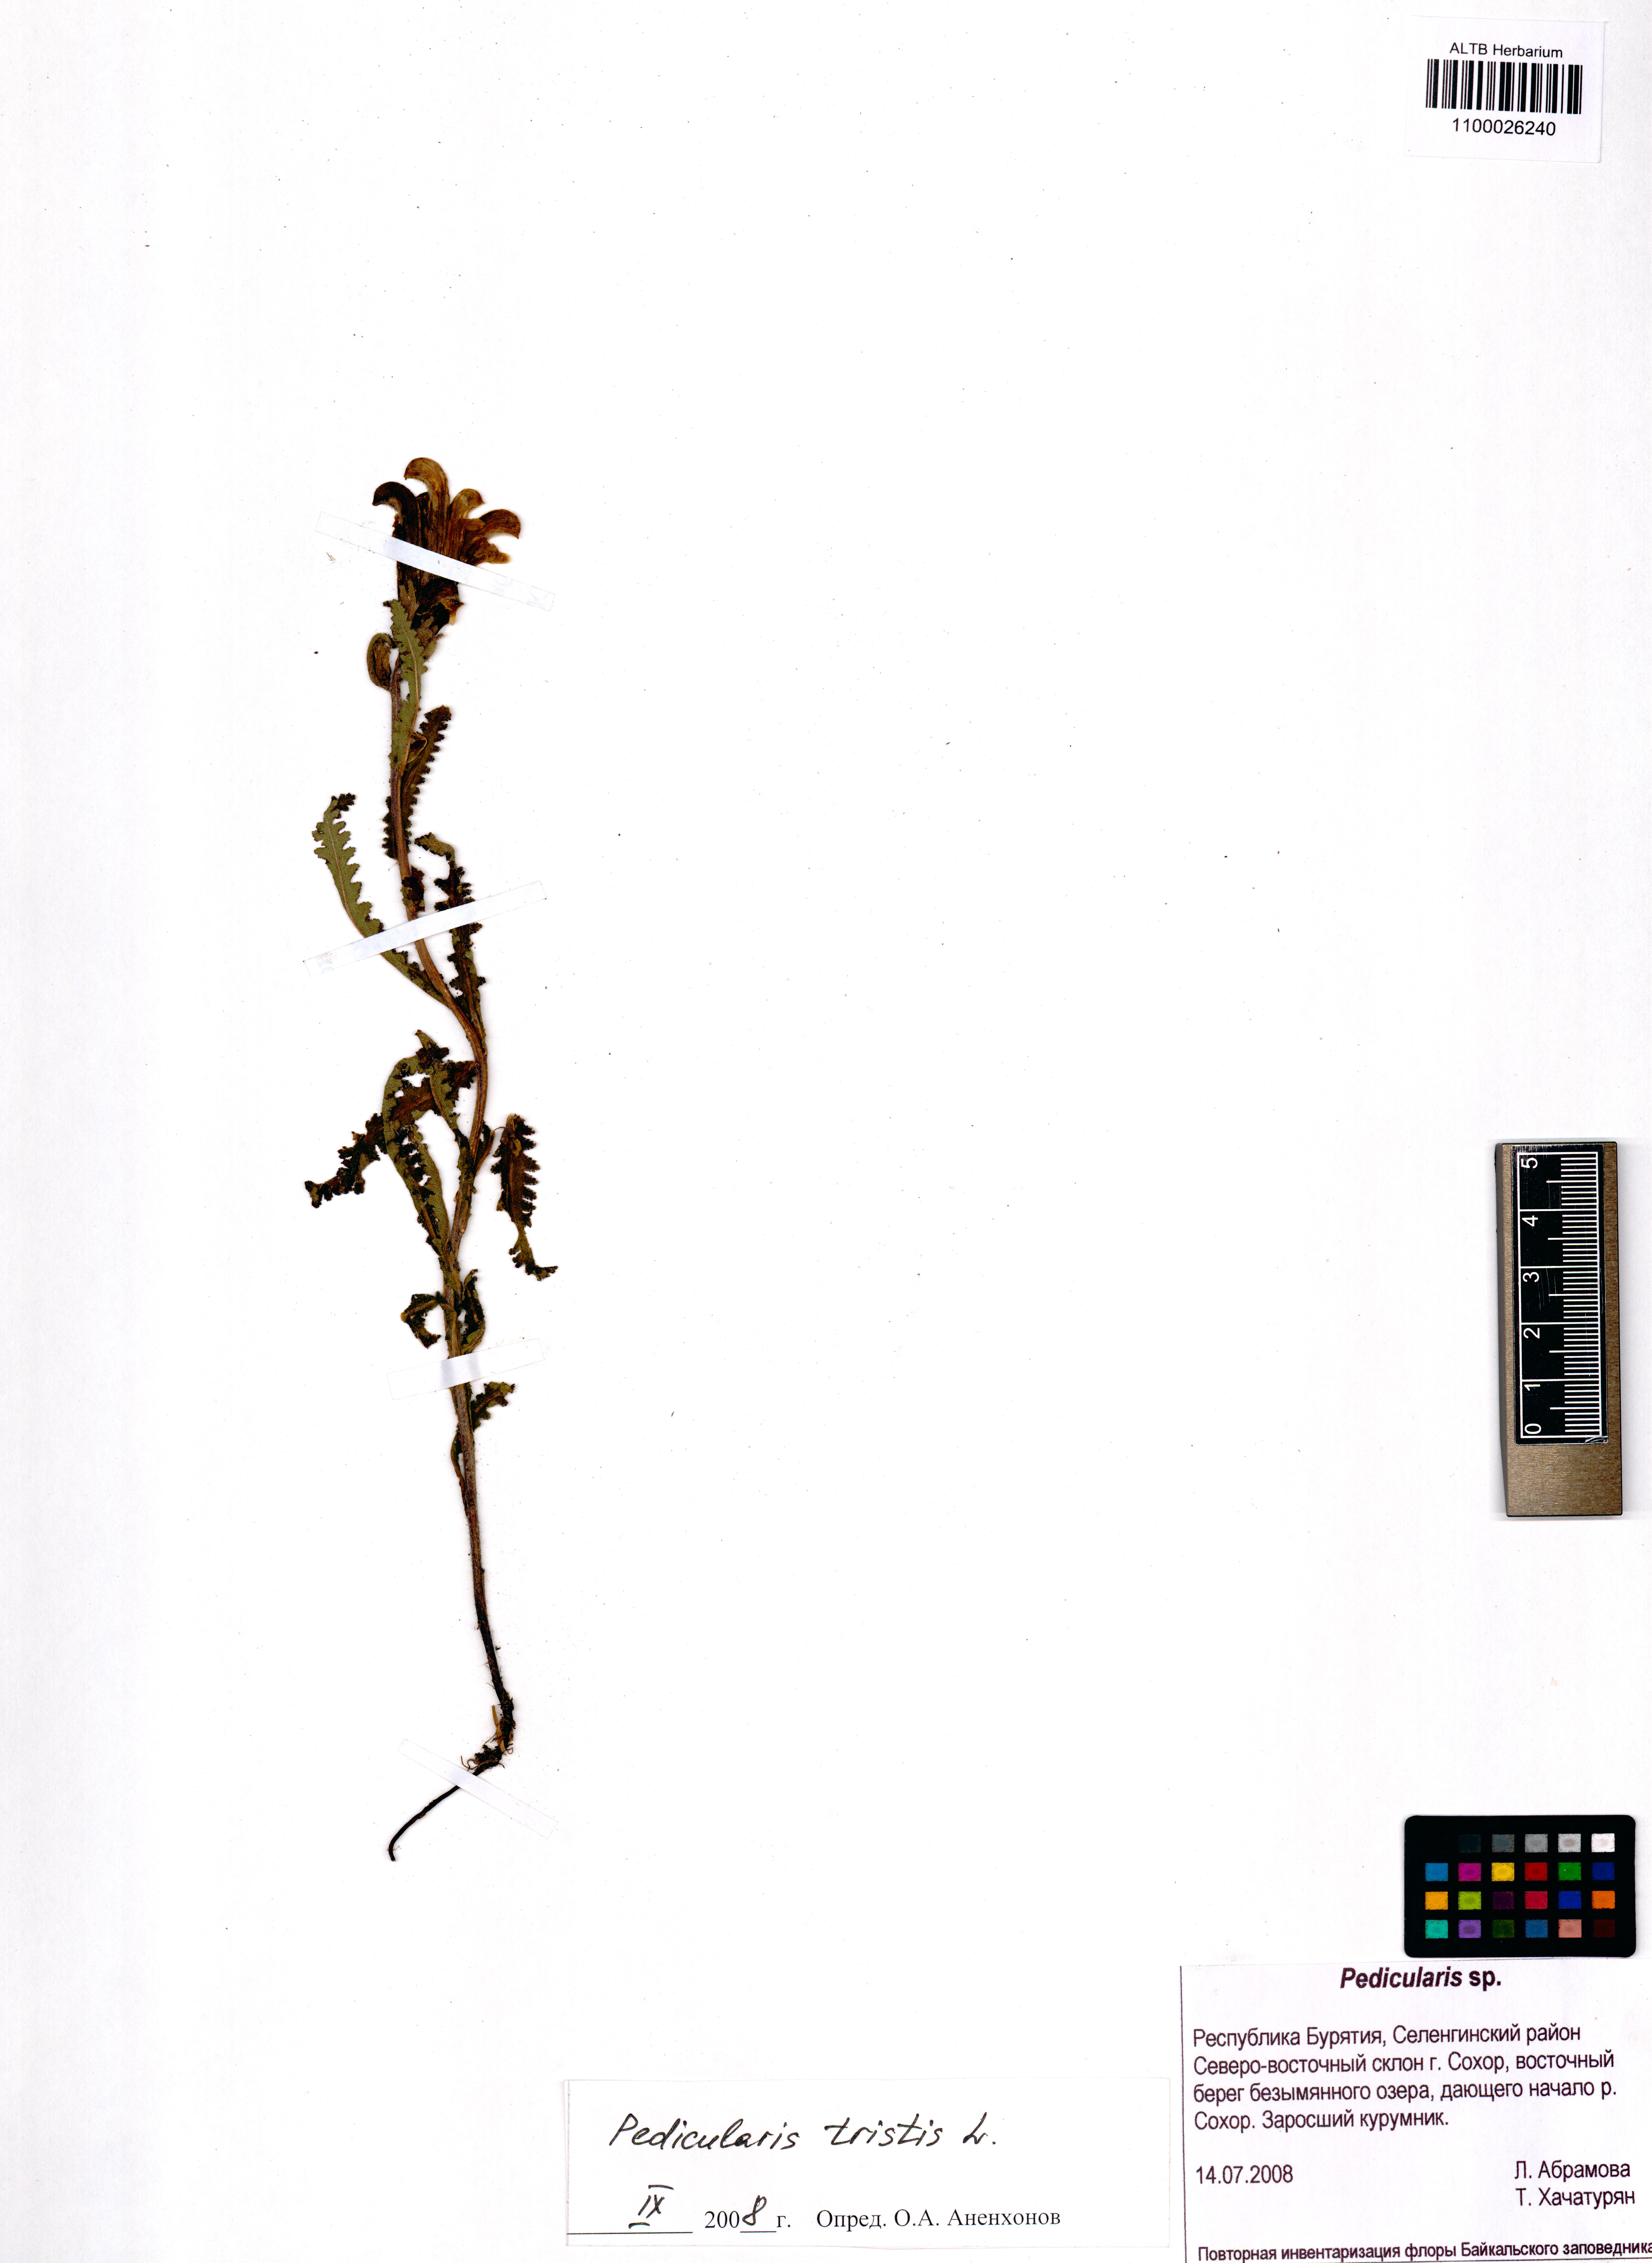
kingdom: Plantae
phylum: Tracheophyta
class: Magnoliopsida
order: Lamiales
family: Orobanchaceae
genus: Pedicularis
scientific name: Pedicularis tristis
